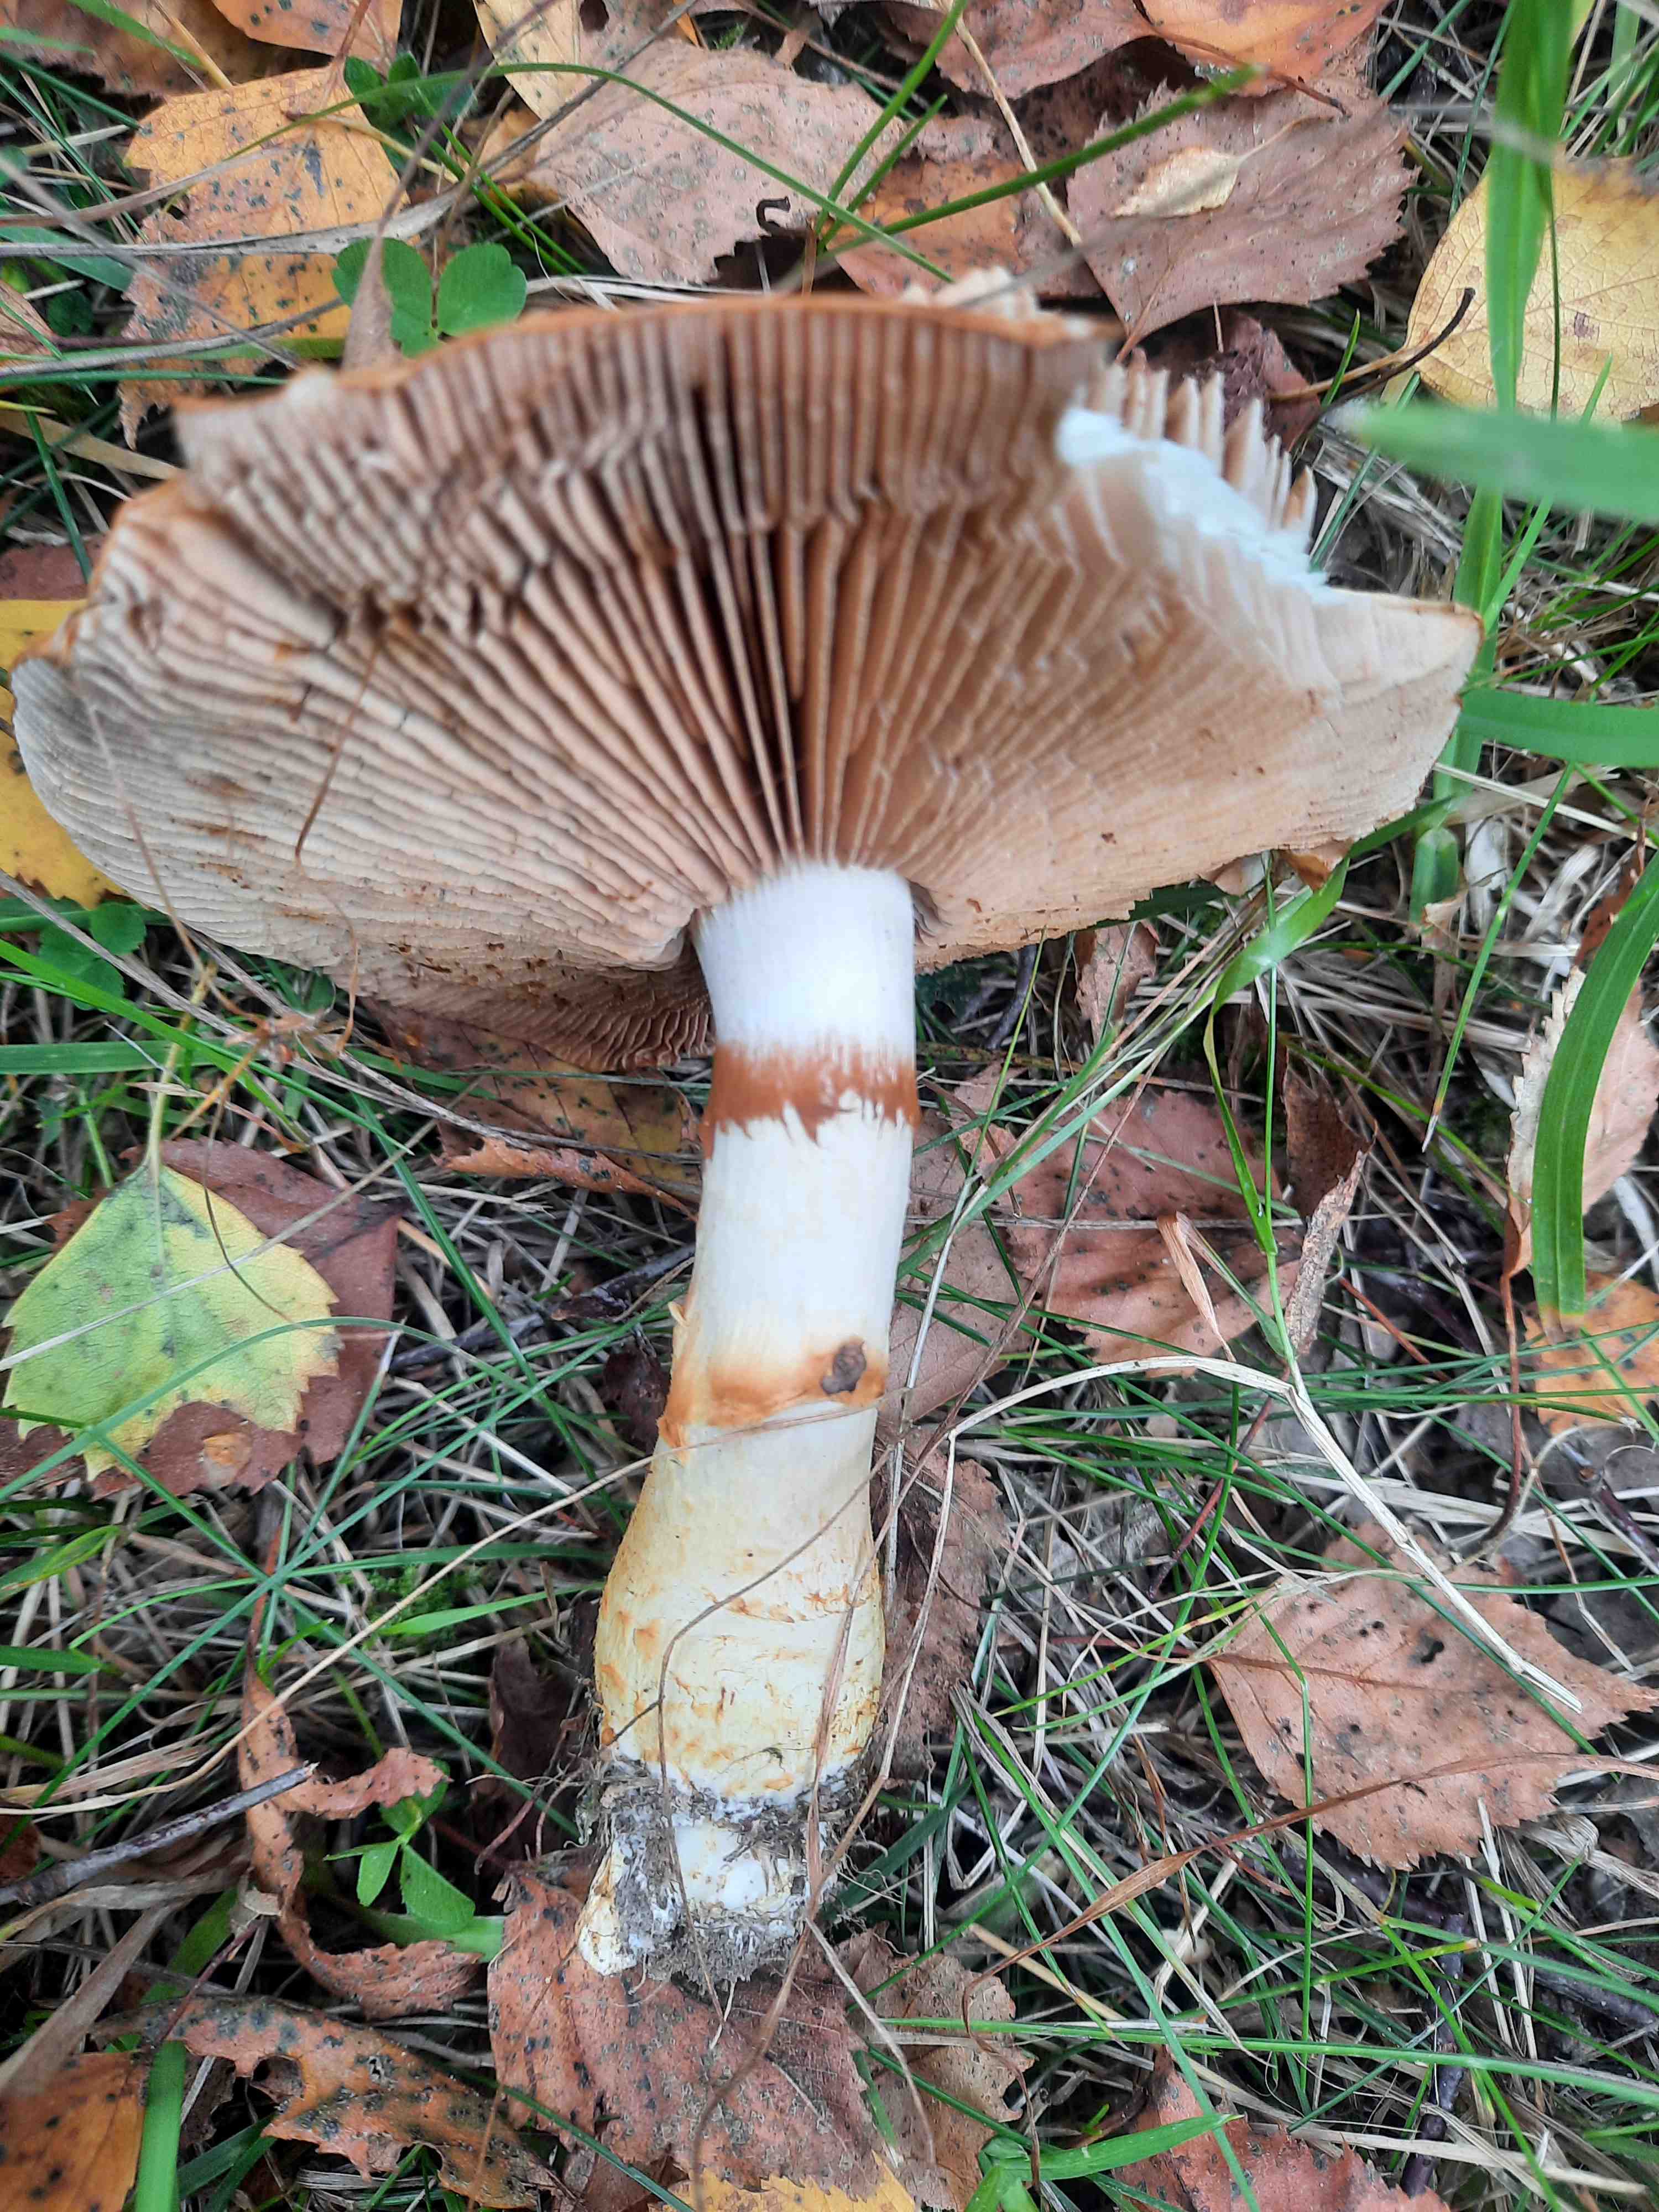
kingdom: Fungi
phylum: Basidiomycota
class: Agaricomycetes
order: Agaricales
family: Cortinariaceae
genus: Cortinarius
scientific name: Cortinarius
